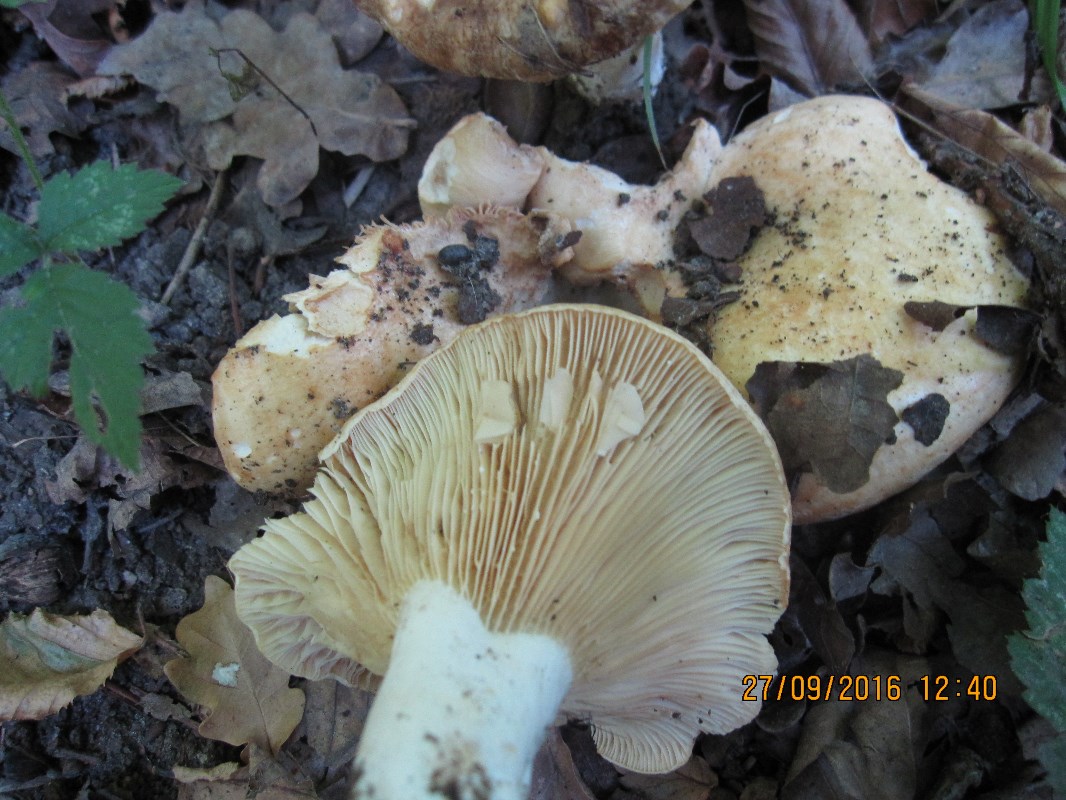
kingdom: Fungi
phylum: Basidiomycota
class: Agaricomycetes
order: Russulales
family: Russulaceae
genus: Lactarius
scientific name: Lactarius acerrimus
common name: brændende mælkehat
